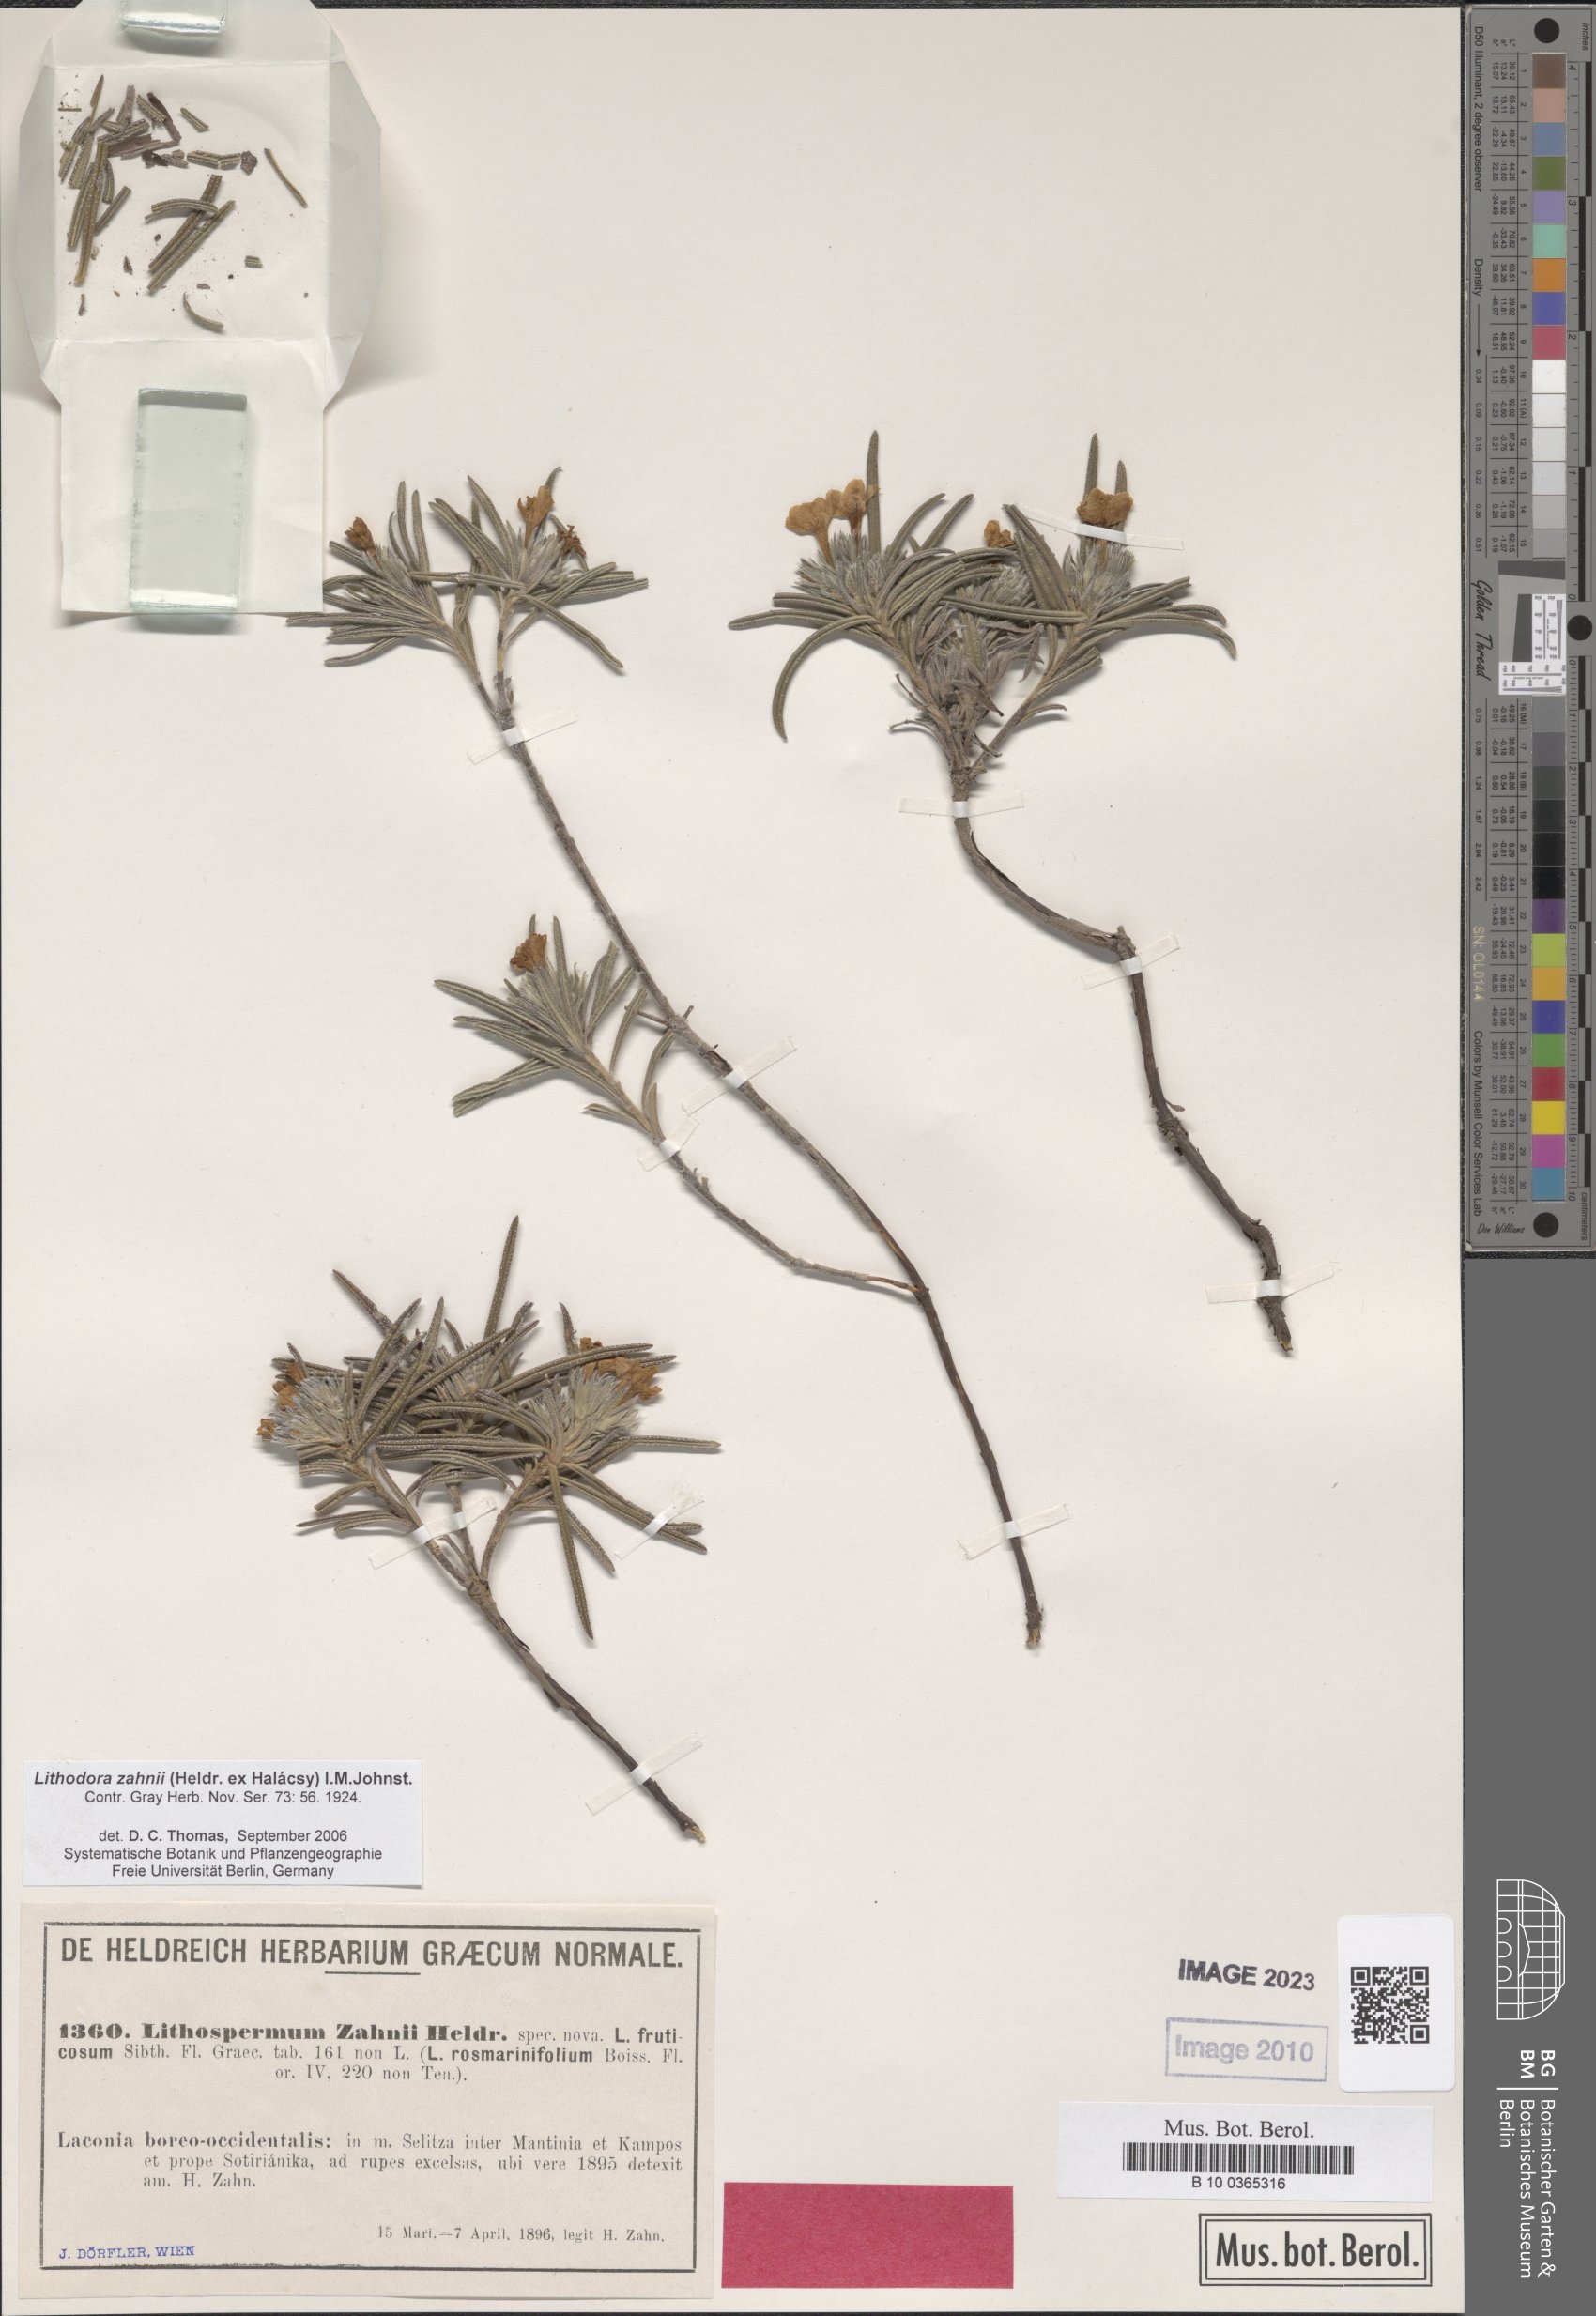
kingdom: Plantae
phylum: Tracheophyta
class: Magnoliopsida
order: Boraginales
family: Boraginaceae
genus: Lithodora
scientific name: Lithodora zahnii
